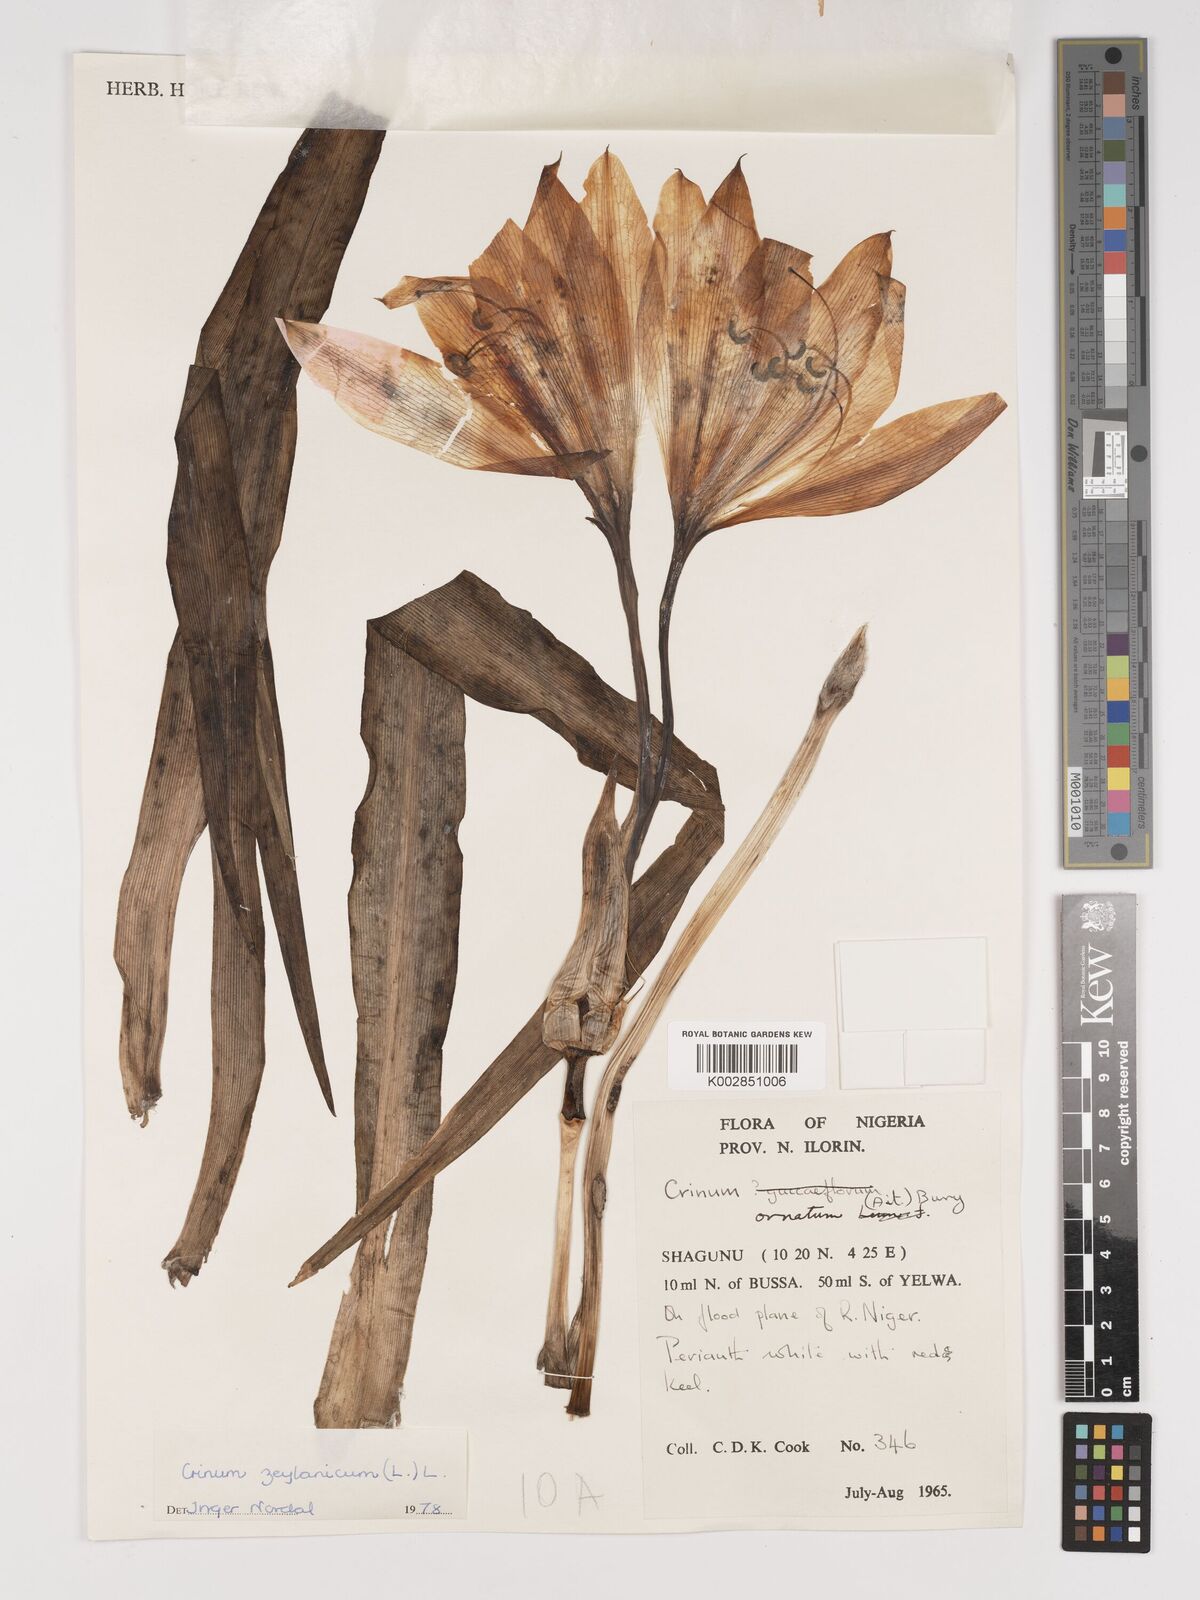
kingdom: Plantae
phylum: Tracheophyta
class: Liliopsida
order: Asparagales
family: Amaryllidaceae
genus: Crinum
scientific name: Crinum zeylanicum
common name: Ceylon swamplily
